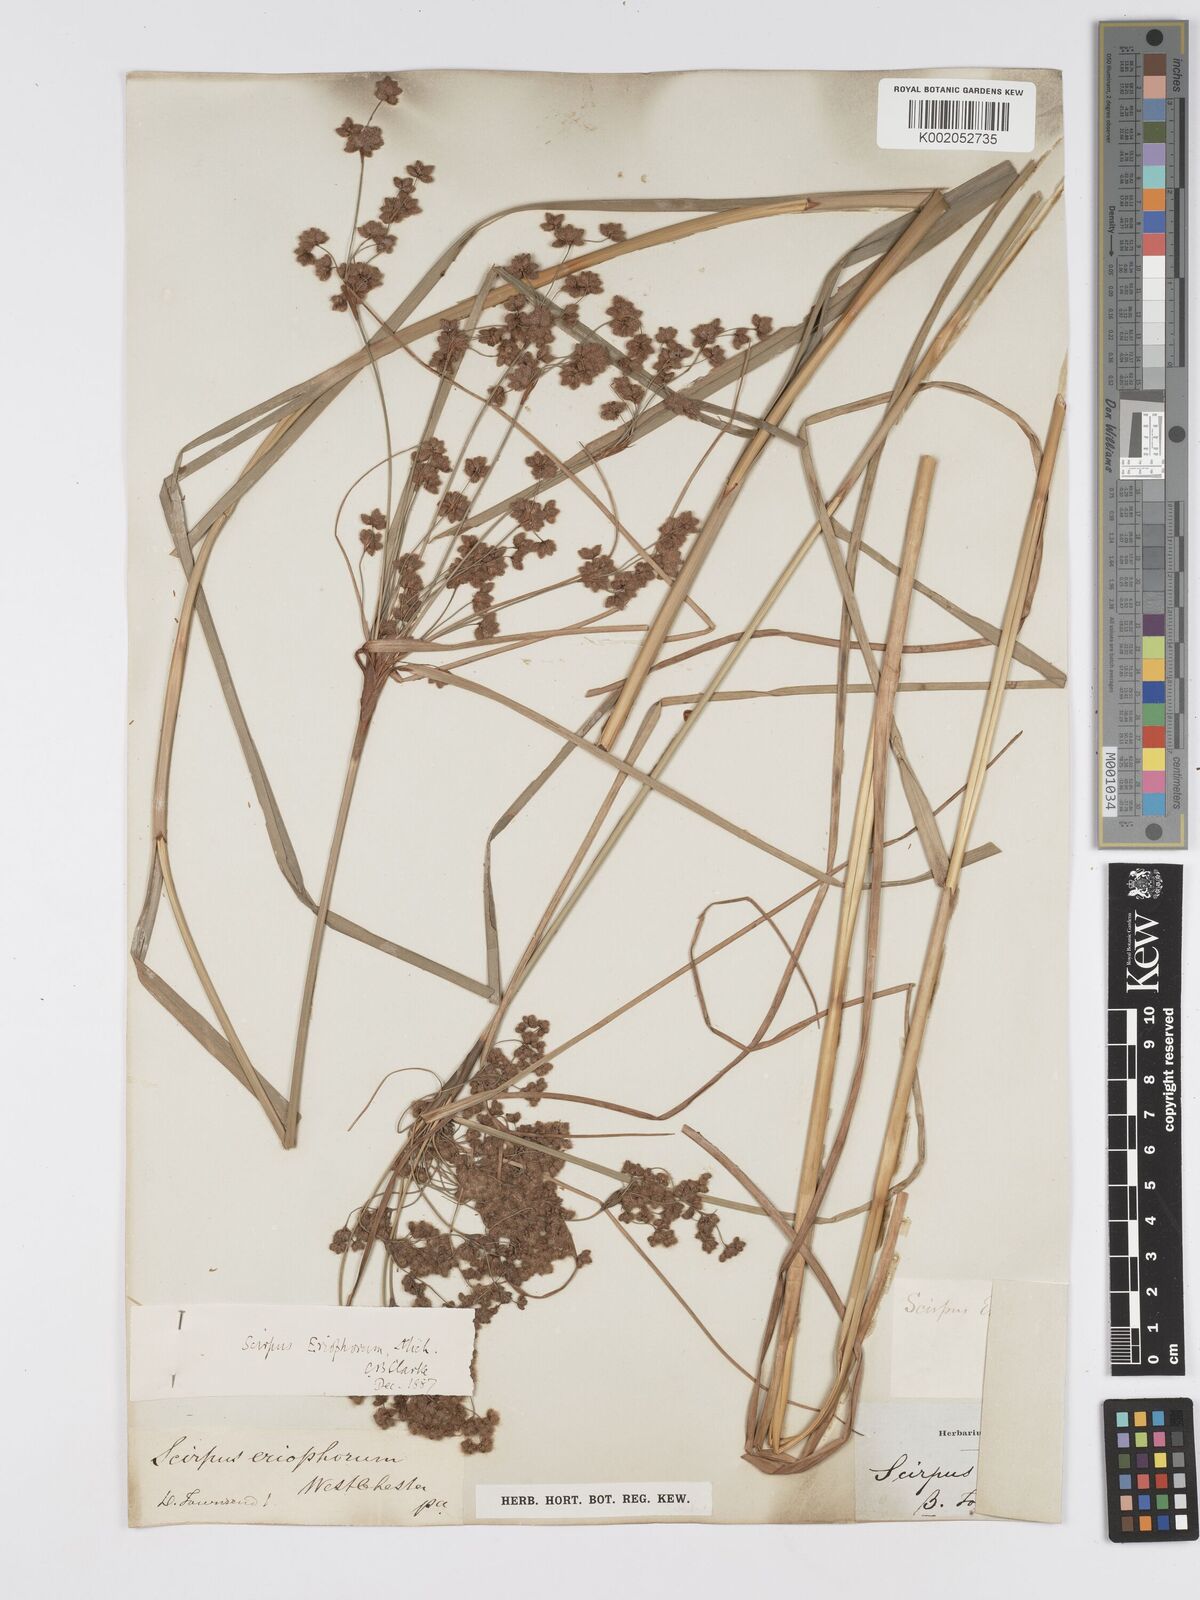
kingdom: Plantae
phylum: Tracheophyta
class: Liliopsida
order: Poales
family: Cyperaceae
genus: Scirpus
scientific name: Scirpus cyperinus
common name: Black-sheathed bulrush
